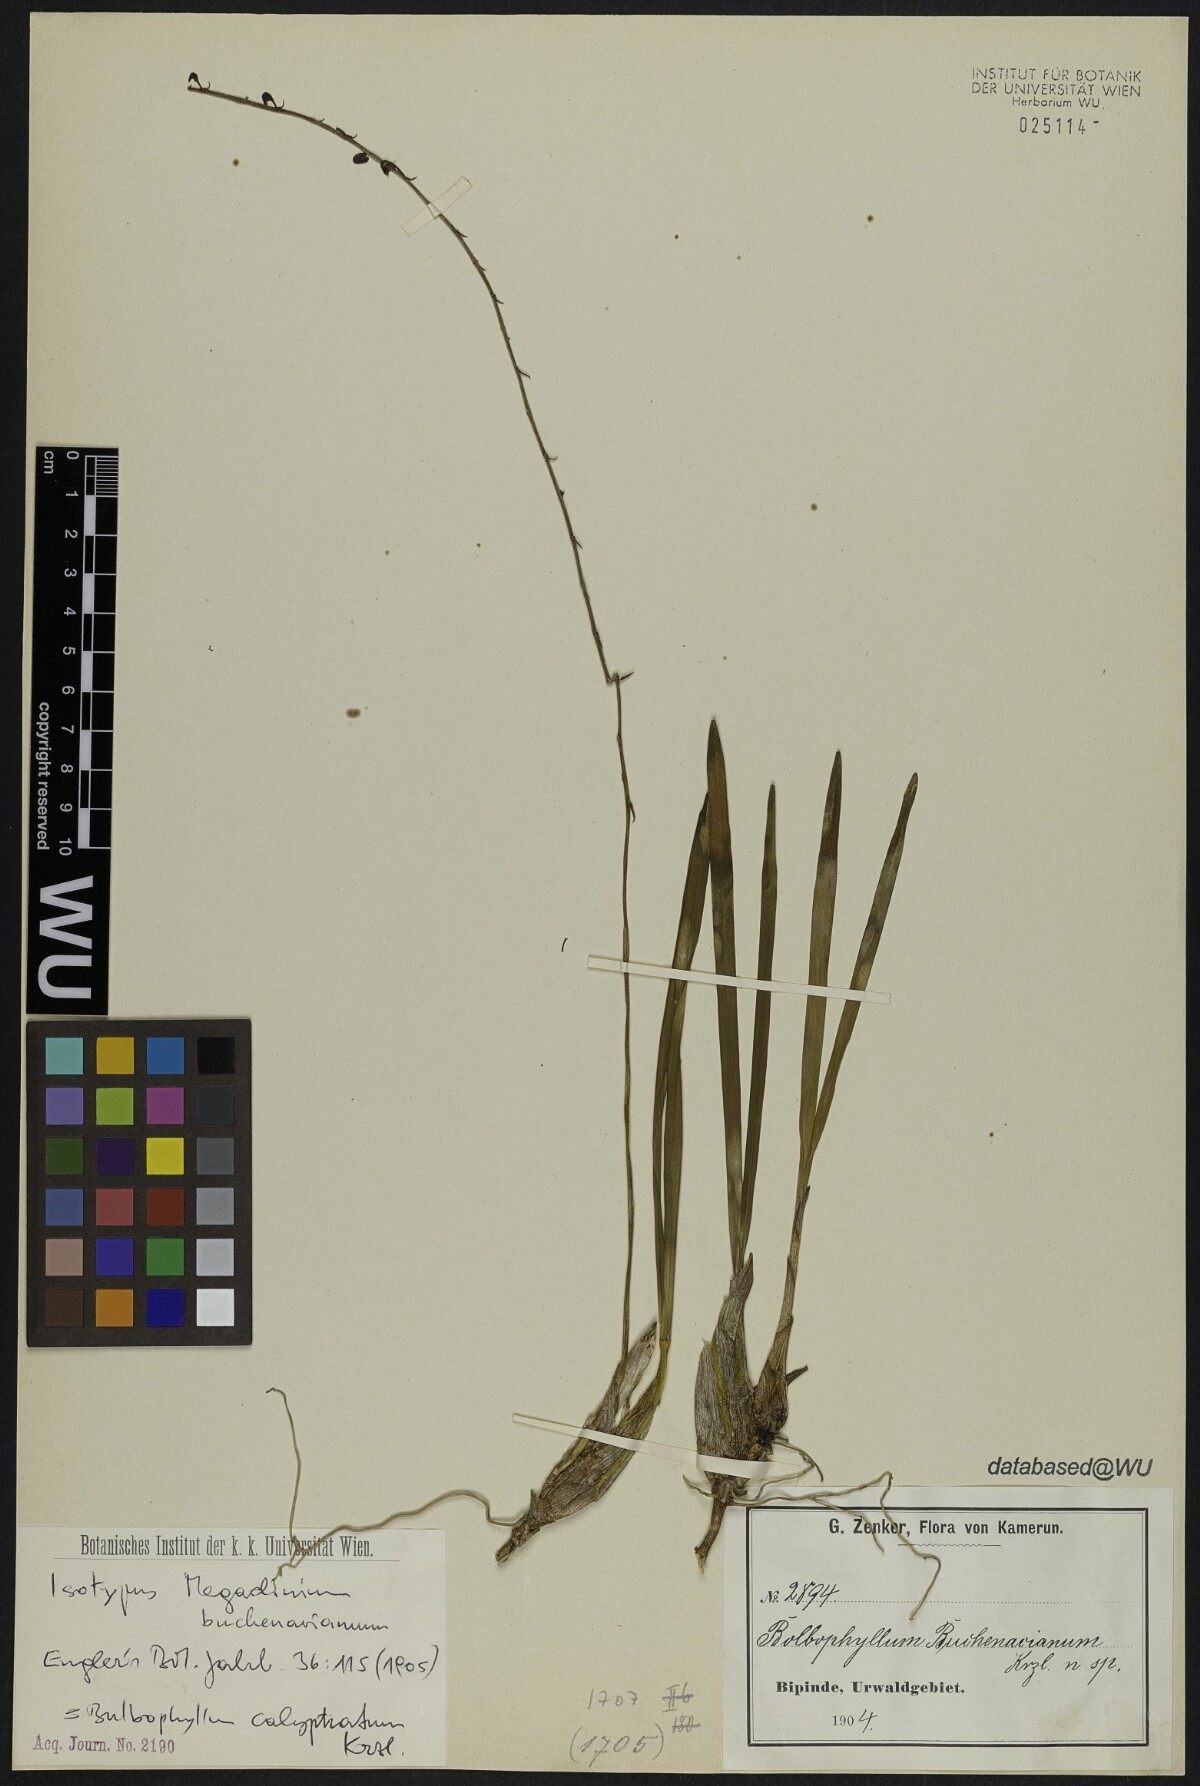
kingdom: Plantae
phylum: Tracheophyta
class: Liliopsida
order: Asparagales
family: Orchidaceae
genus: Bulbophyllum
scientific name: Bulbophyllum Megaclinium buchenavianum
